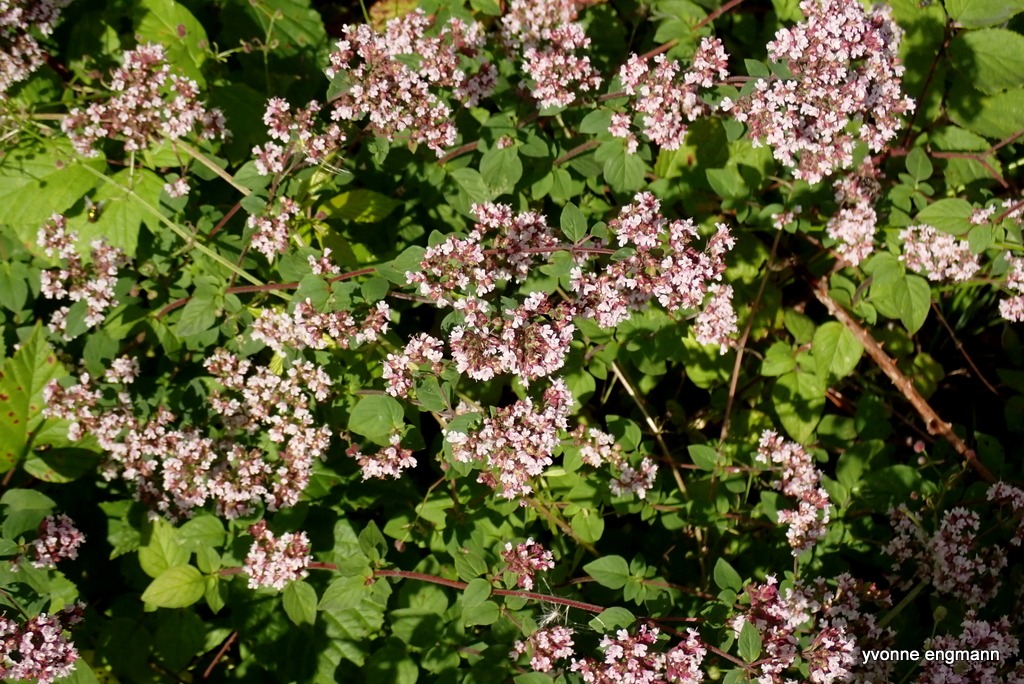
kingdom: Plantae
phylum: Tracheophyta
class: Magnoliopsida
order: Lamiales
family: Lamiaceae
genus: Origanum
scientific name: Origanum vulgare
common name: Merian
